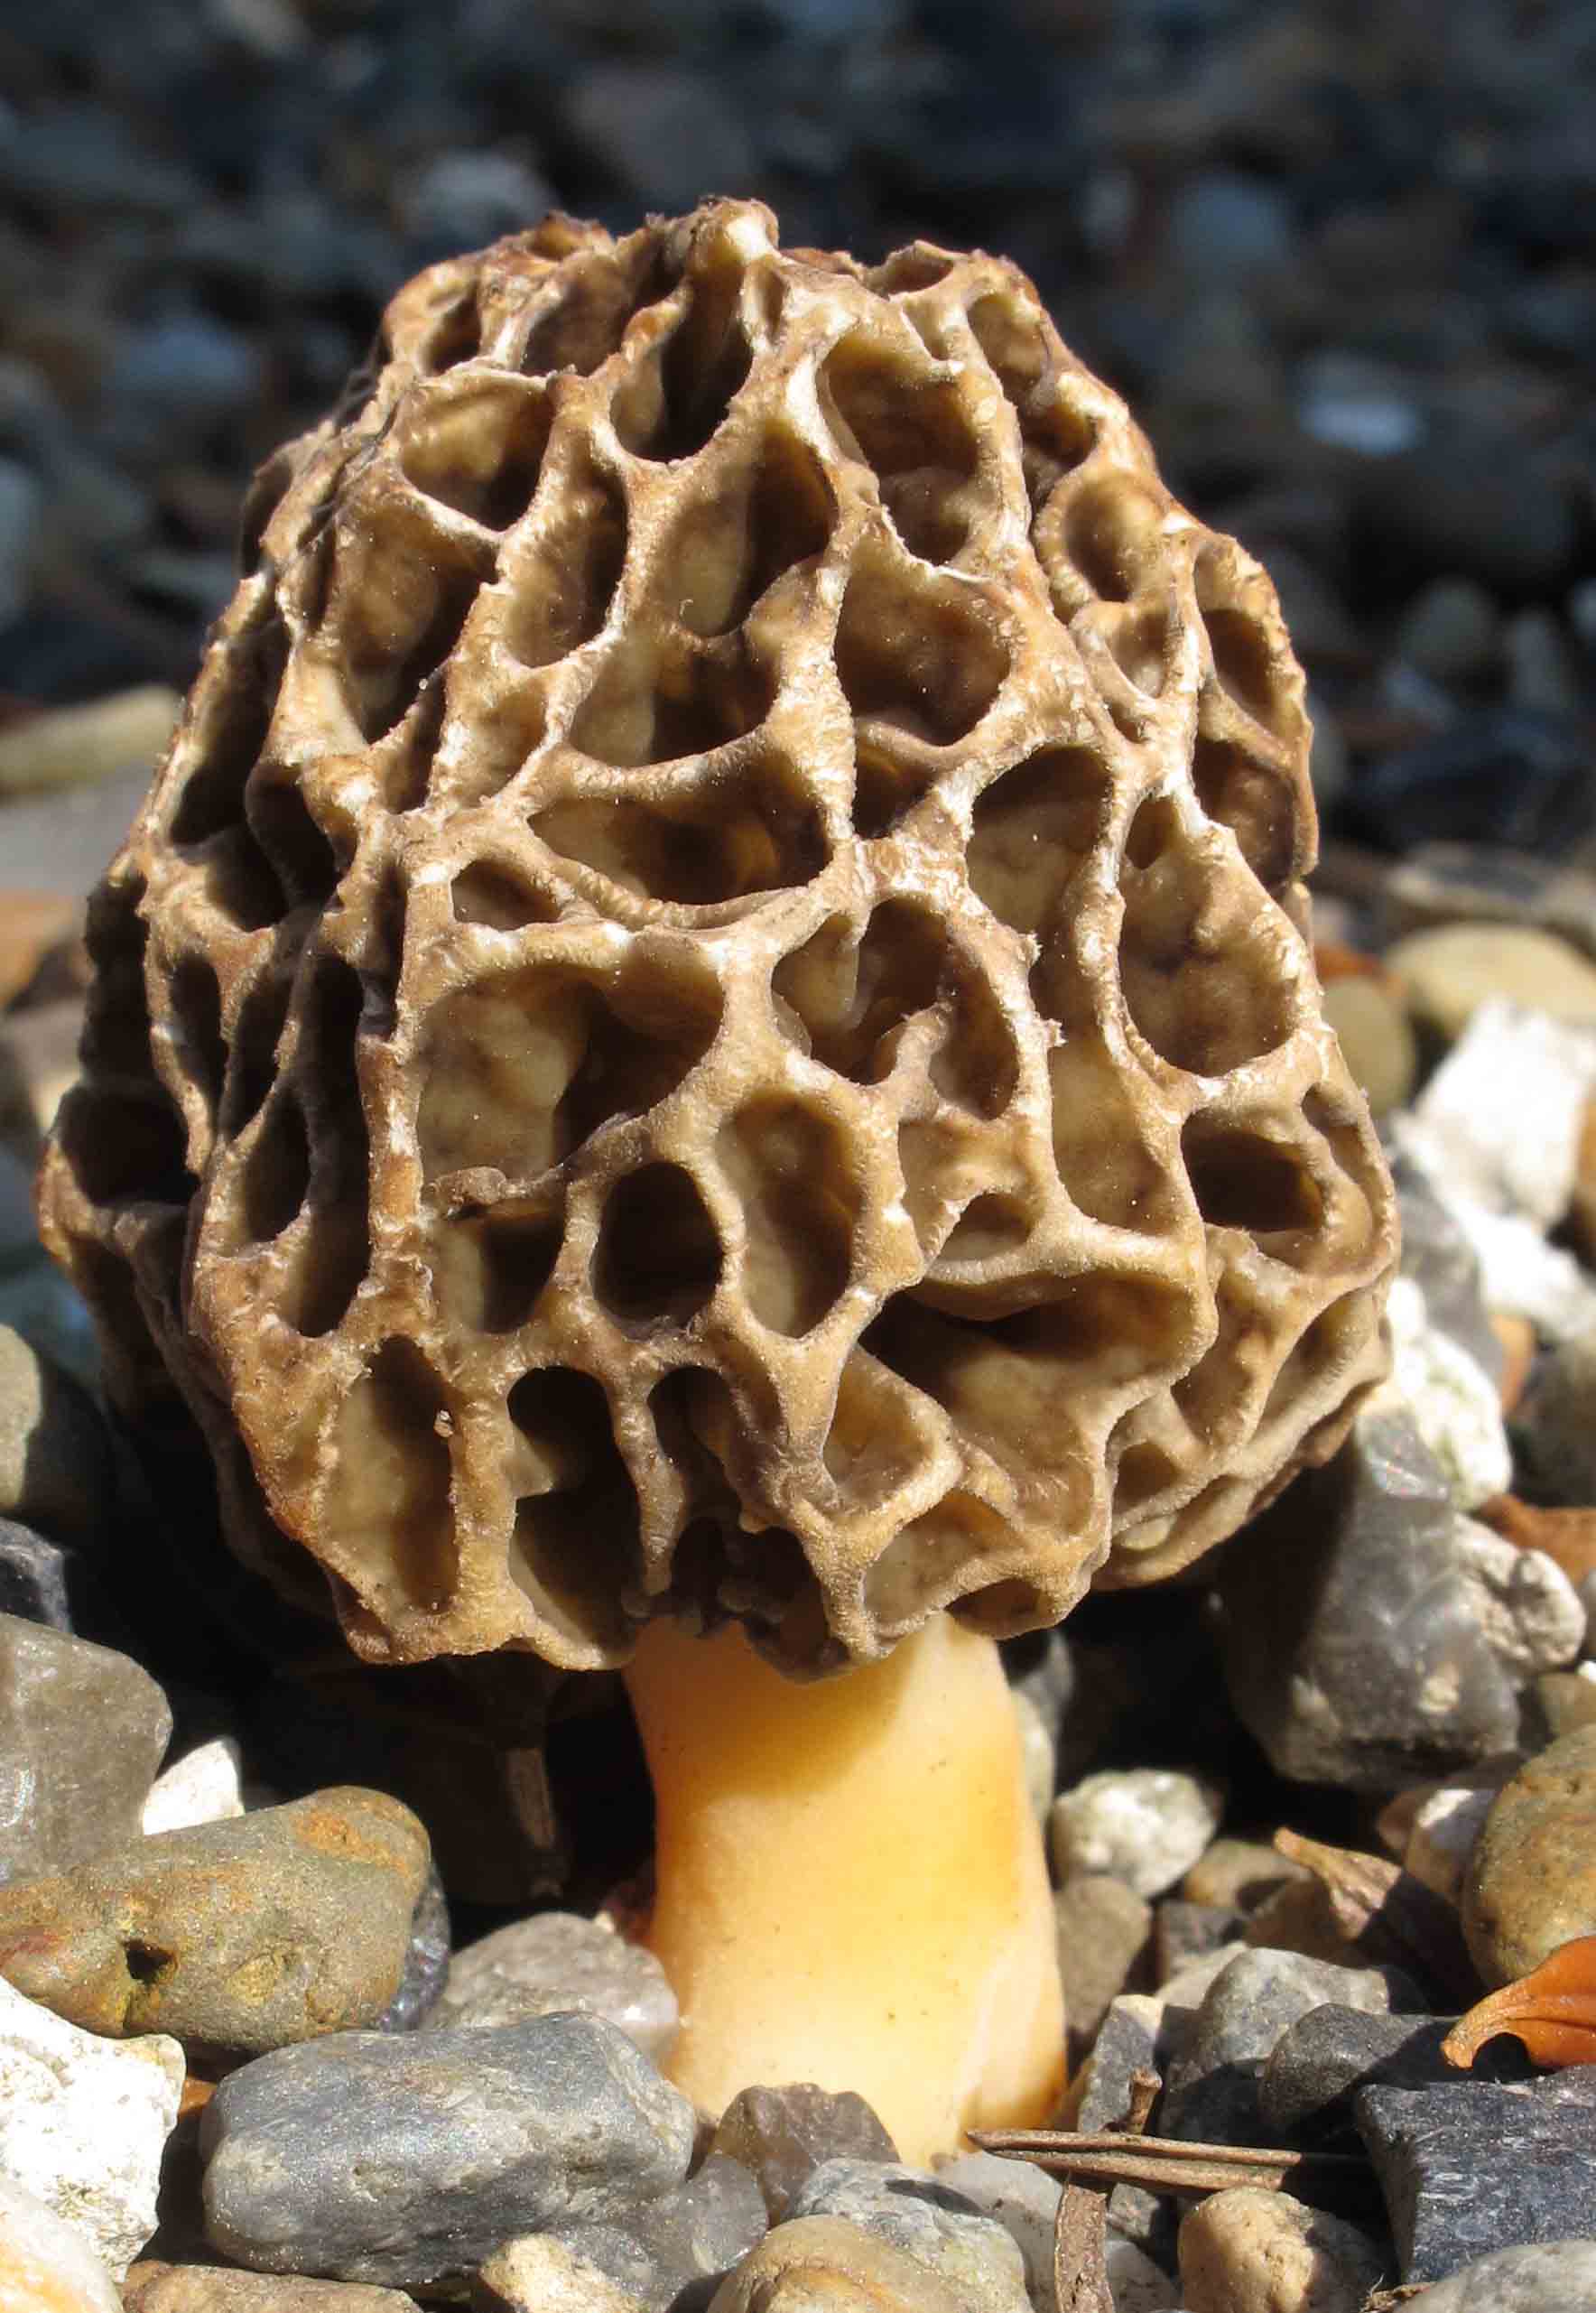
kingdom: Fungi
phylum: Ascomycota
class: Pezizomycetes
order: Pezizales
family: Morchellaceae
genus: Morchella
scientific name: Morchella esculenta
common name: spiselig morkel
